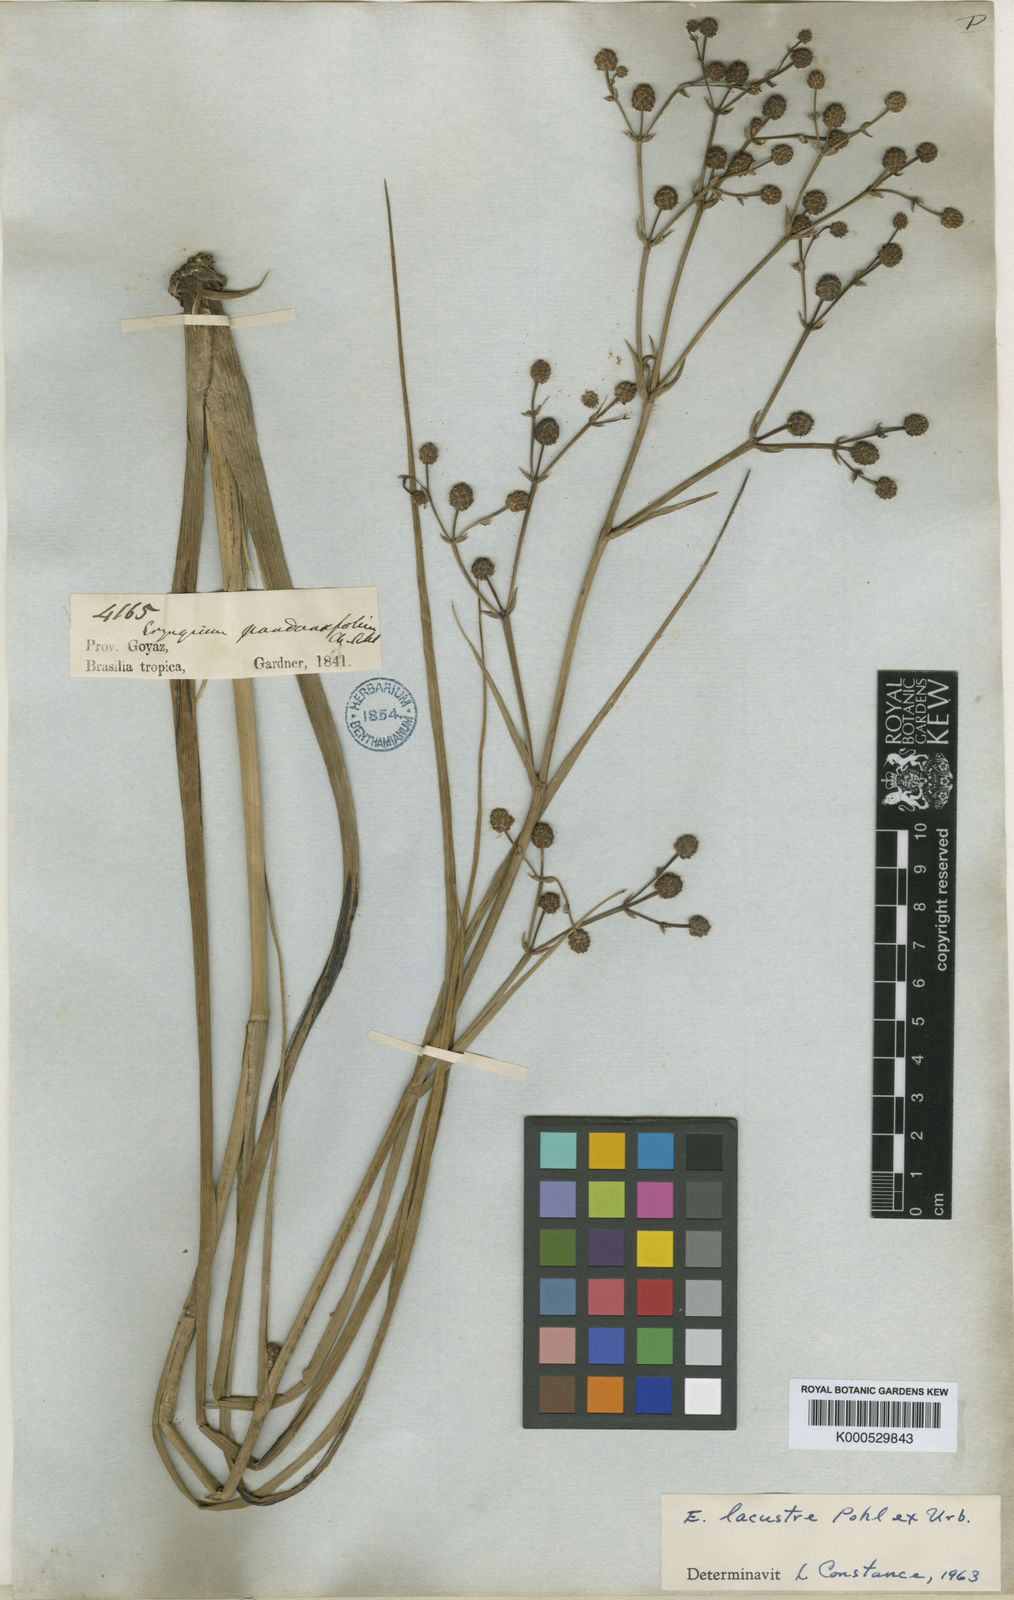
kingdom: Plantae
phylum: Tracheophyta
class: Magnoliopsida
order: Apiales
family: Apiaceae
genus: Eryngium
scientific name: Eryngium
